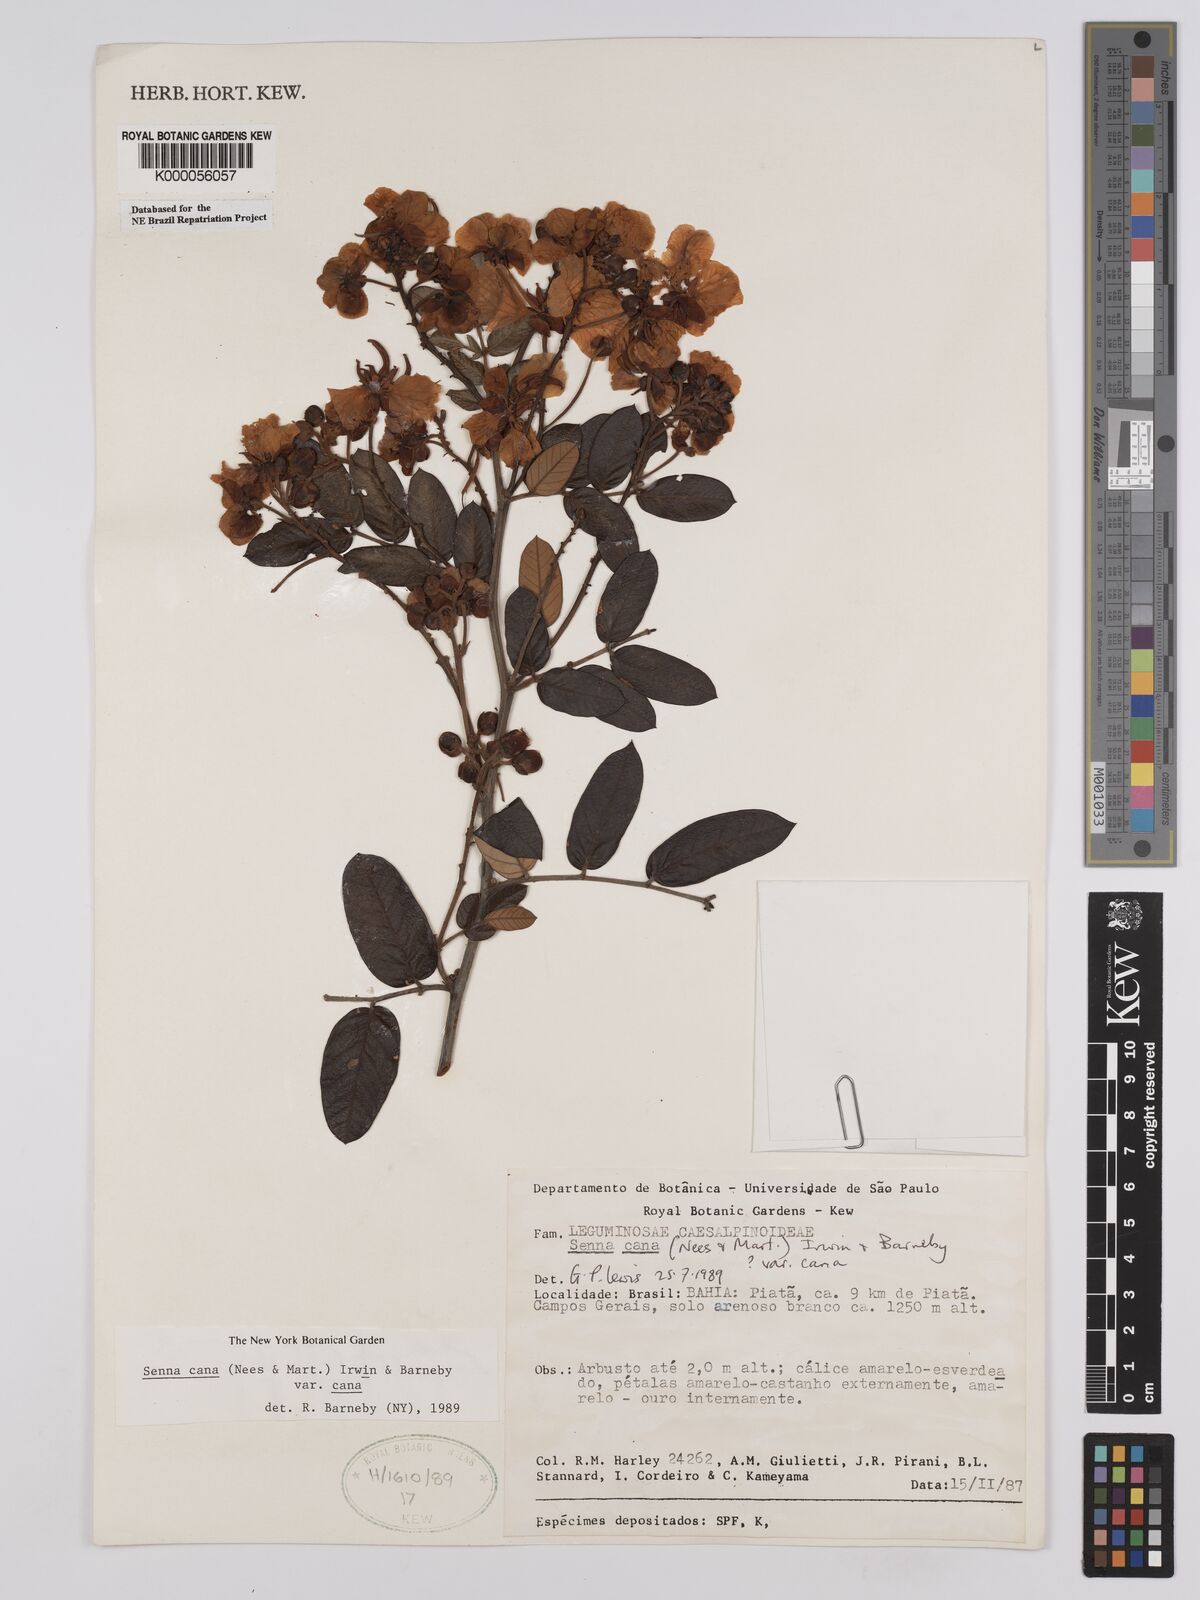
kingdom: Plantae
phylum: Tracheophyta
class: Magnoliopsida
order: Fabales
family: Fabaceae
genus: Senna
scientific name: Senna cana
